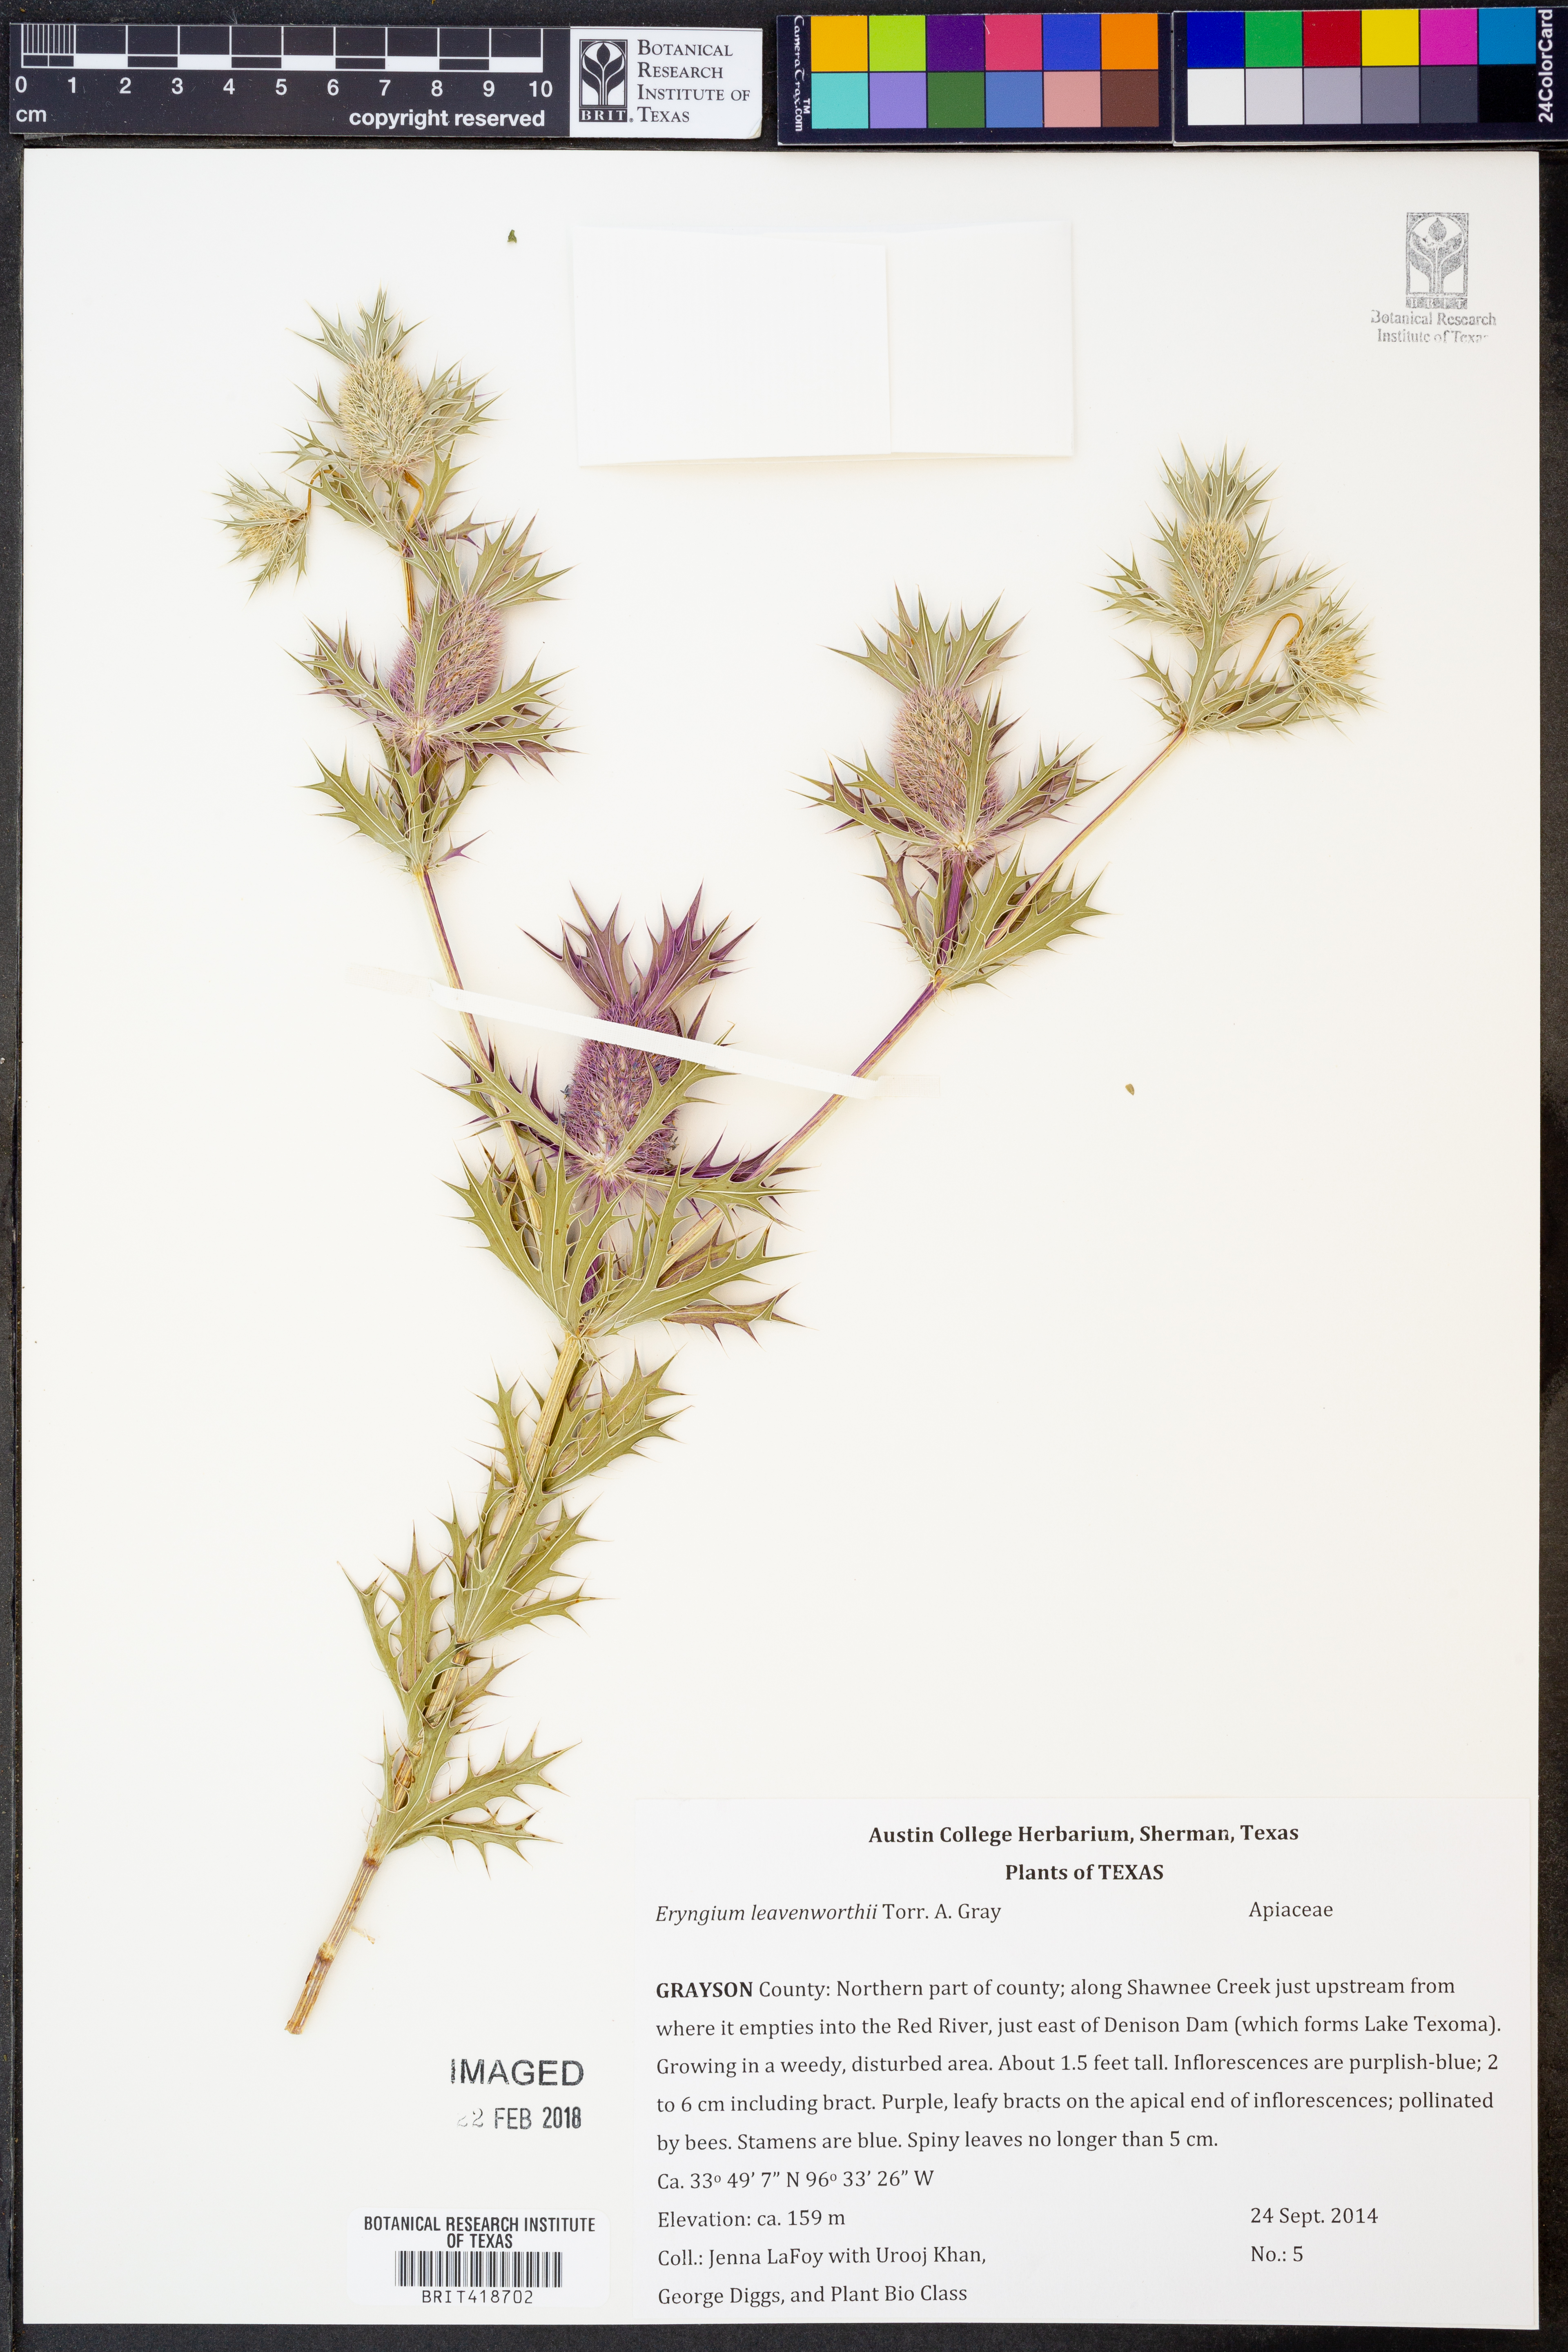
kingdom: Plantae
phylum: Tracheophyta
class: Magnoliopsida
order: Apiales
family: Apiaceae
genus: Eryngium
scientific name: Eryngium leavenworthii
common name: Leavenworth's eryngo
